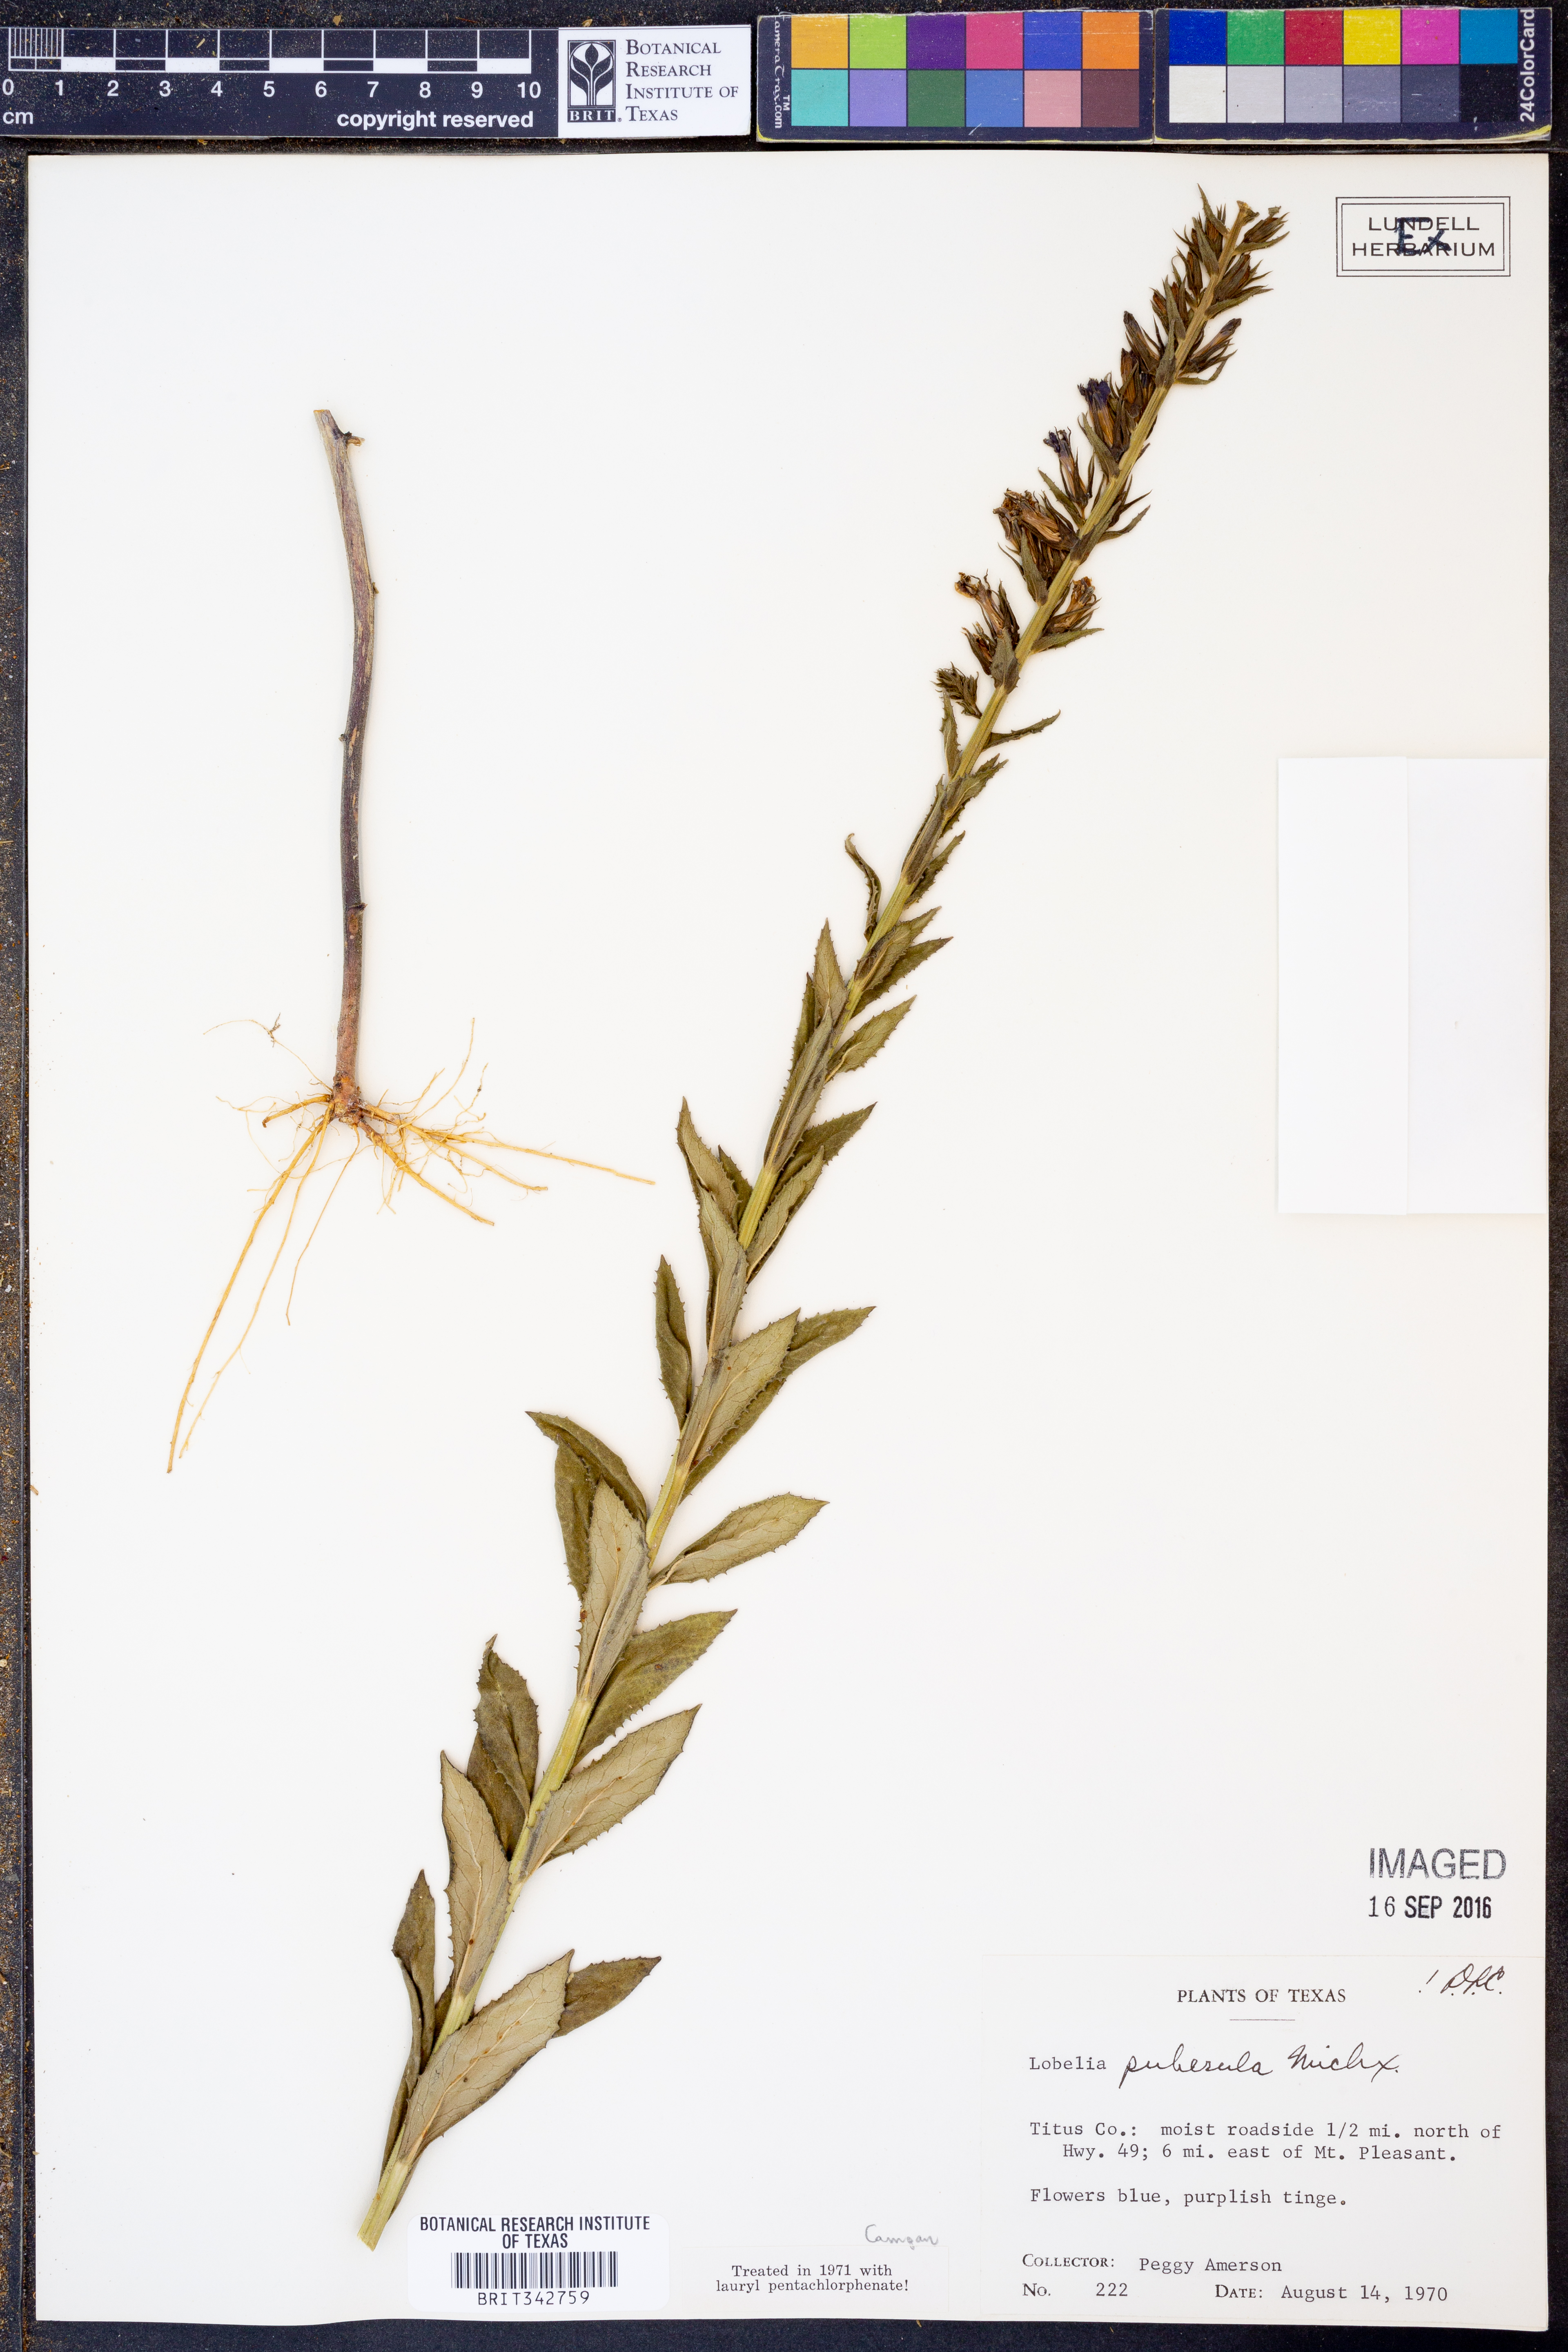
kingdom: Plantae
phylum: Tracheophyta
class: Magnoliopsida
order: Asterales
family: Campanulaceae
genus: Lobelia
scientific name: Lobelia puberula
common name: Purple dewdrop
